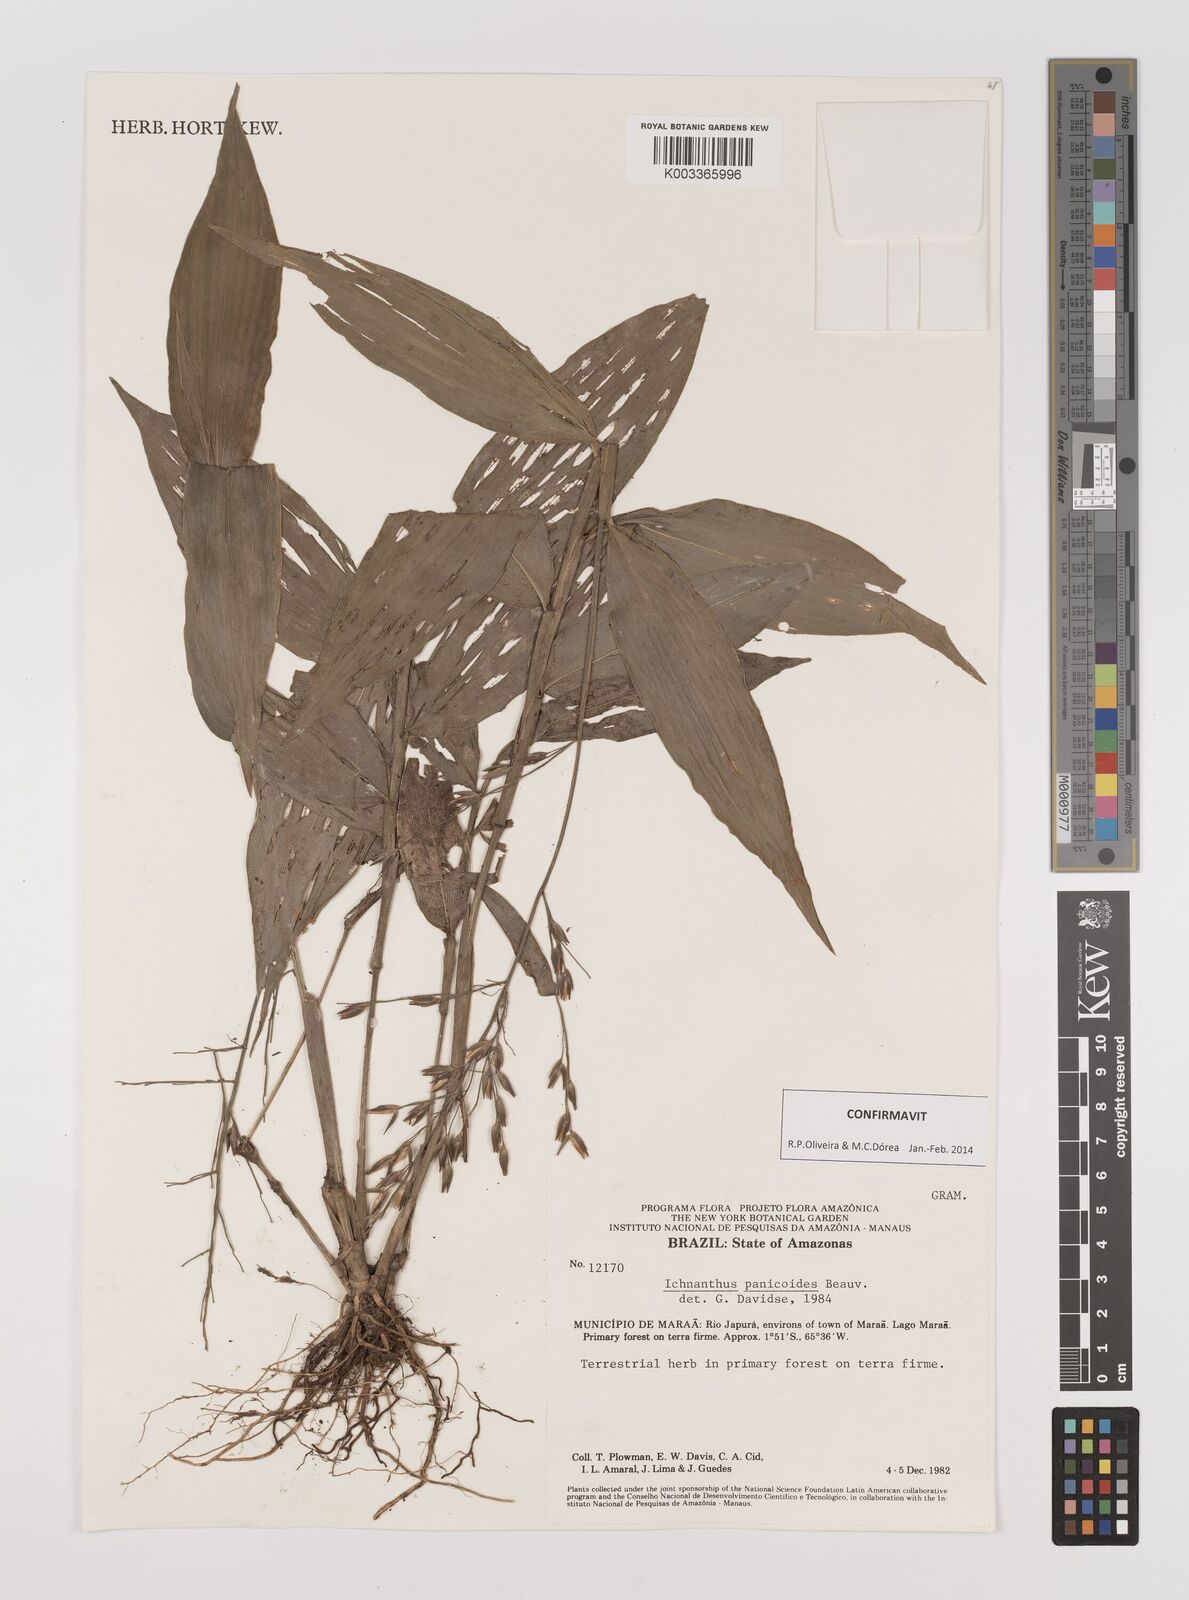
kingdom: Plantae
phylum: Tracheophyta
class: Liliopsida
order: Poales
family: Poaceae
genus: Ichnanthus
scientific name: Ichnanthus panicoides
